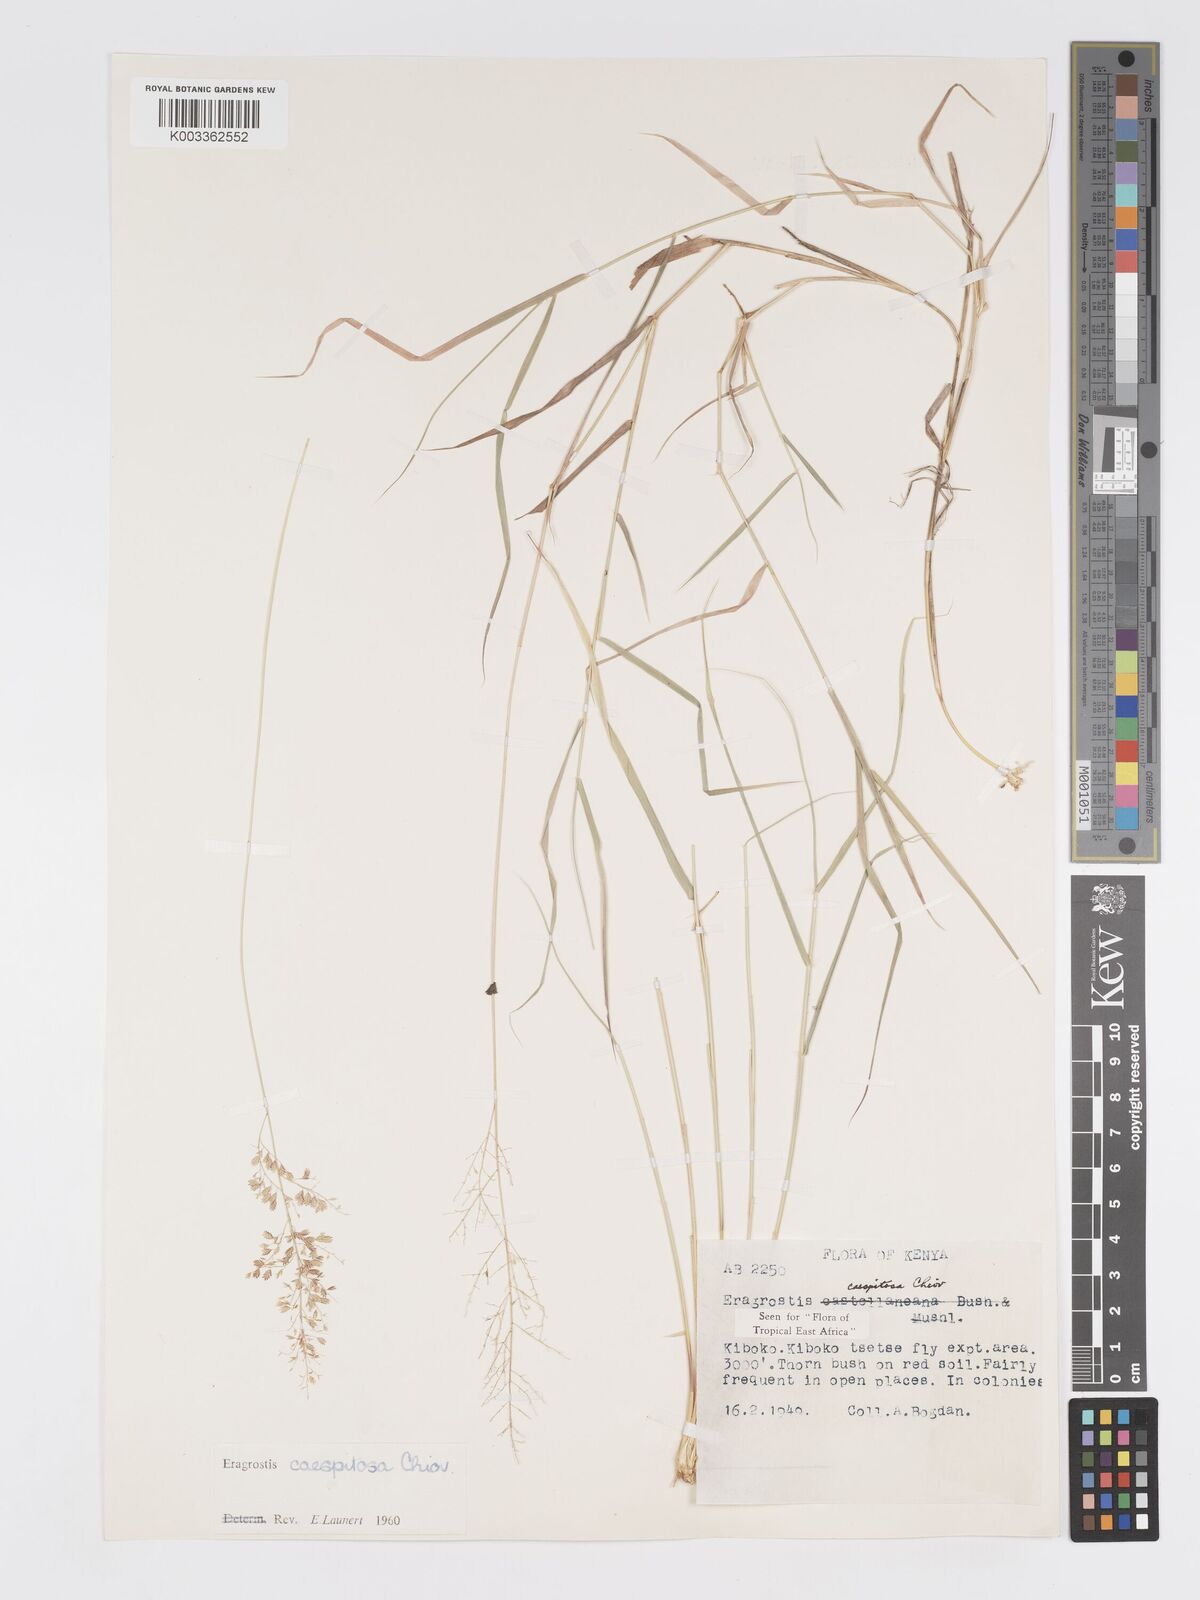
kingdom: Plantae
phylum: Tracheophyta
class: Liliopsida
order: Poales
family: Poaceae
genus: Eragrostis
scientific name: Eragrostis caespitosa
